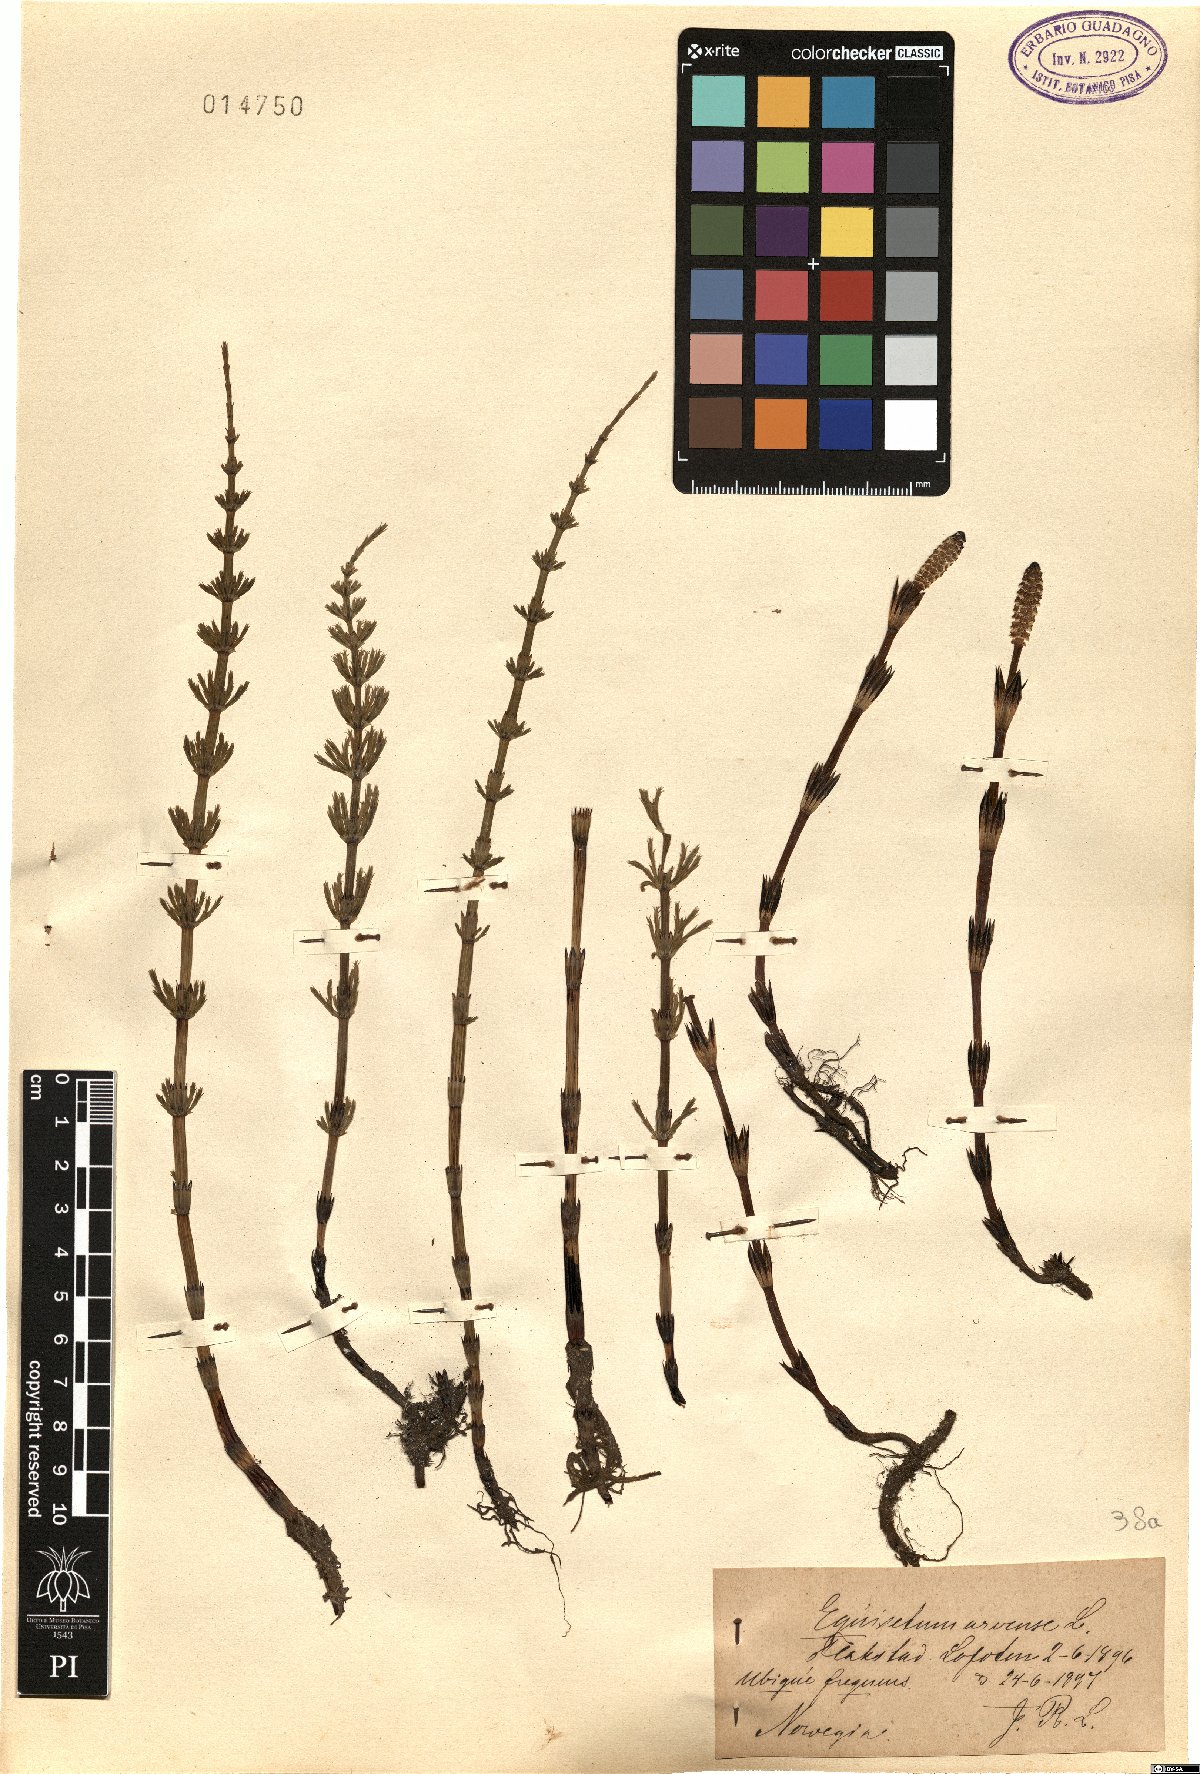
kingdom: Plantae
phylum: Tracheophyta
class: Polypodiopsida
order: Equisetales
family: Equisetaceae
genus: Equisetum
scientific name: Equisetum arvense
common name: Field horsetail
